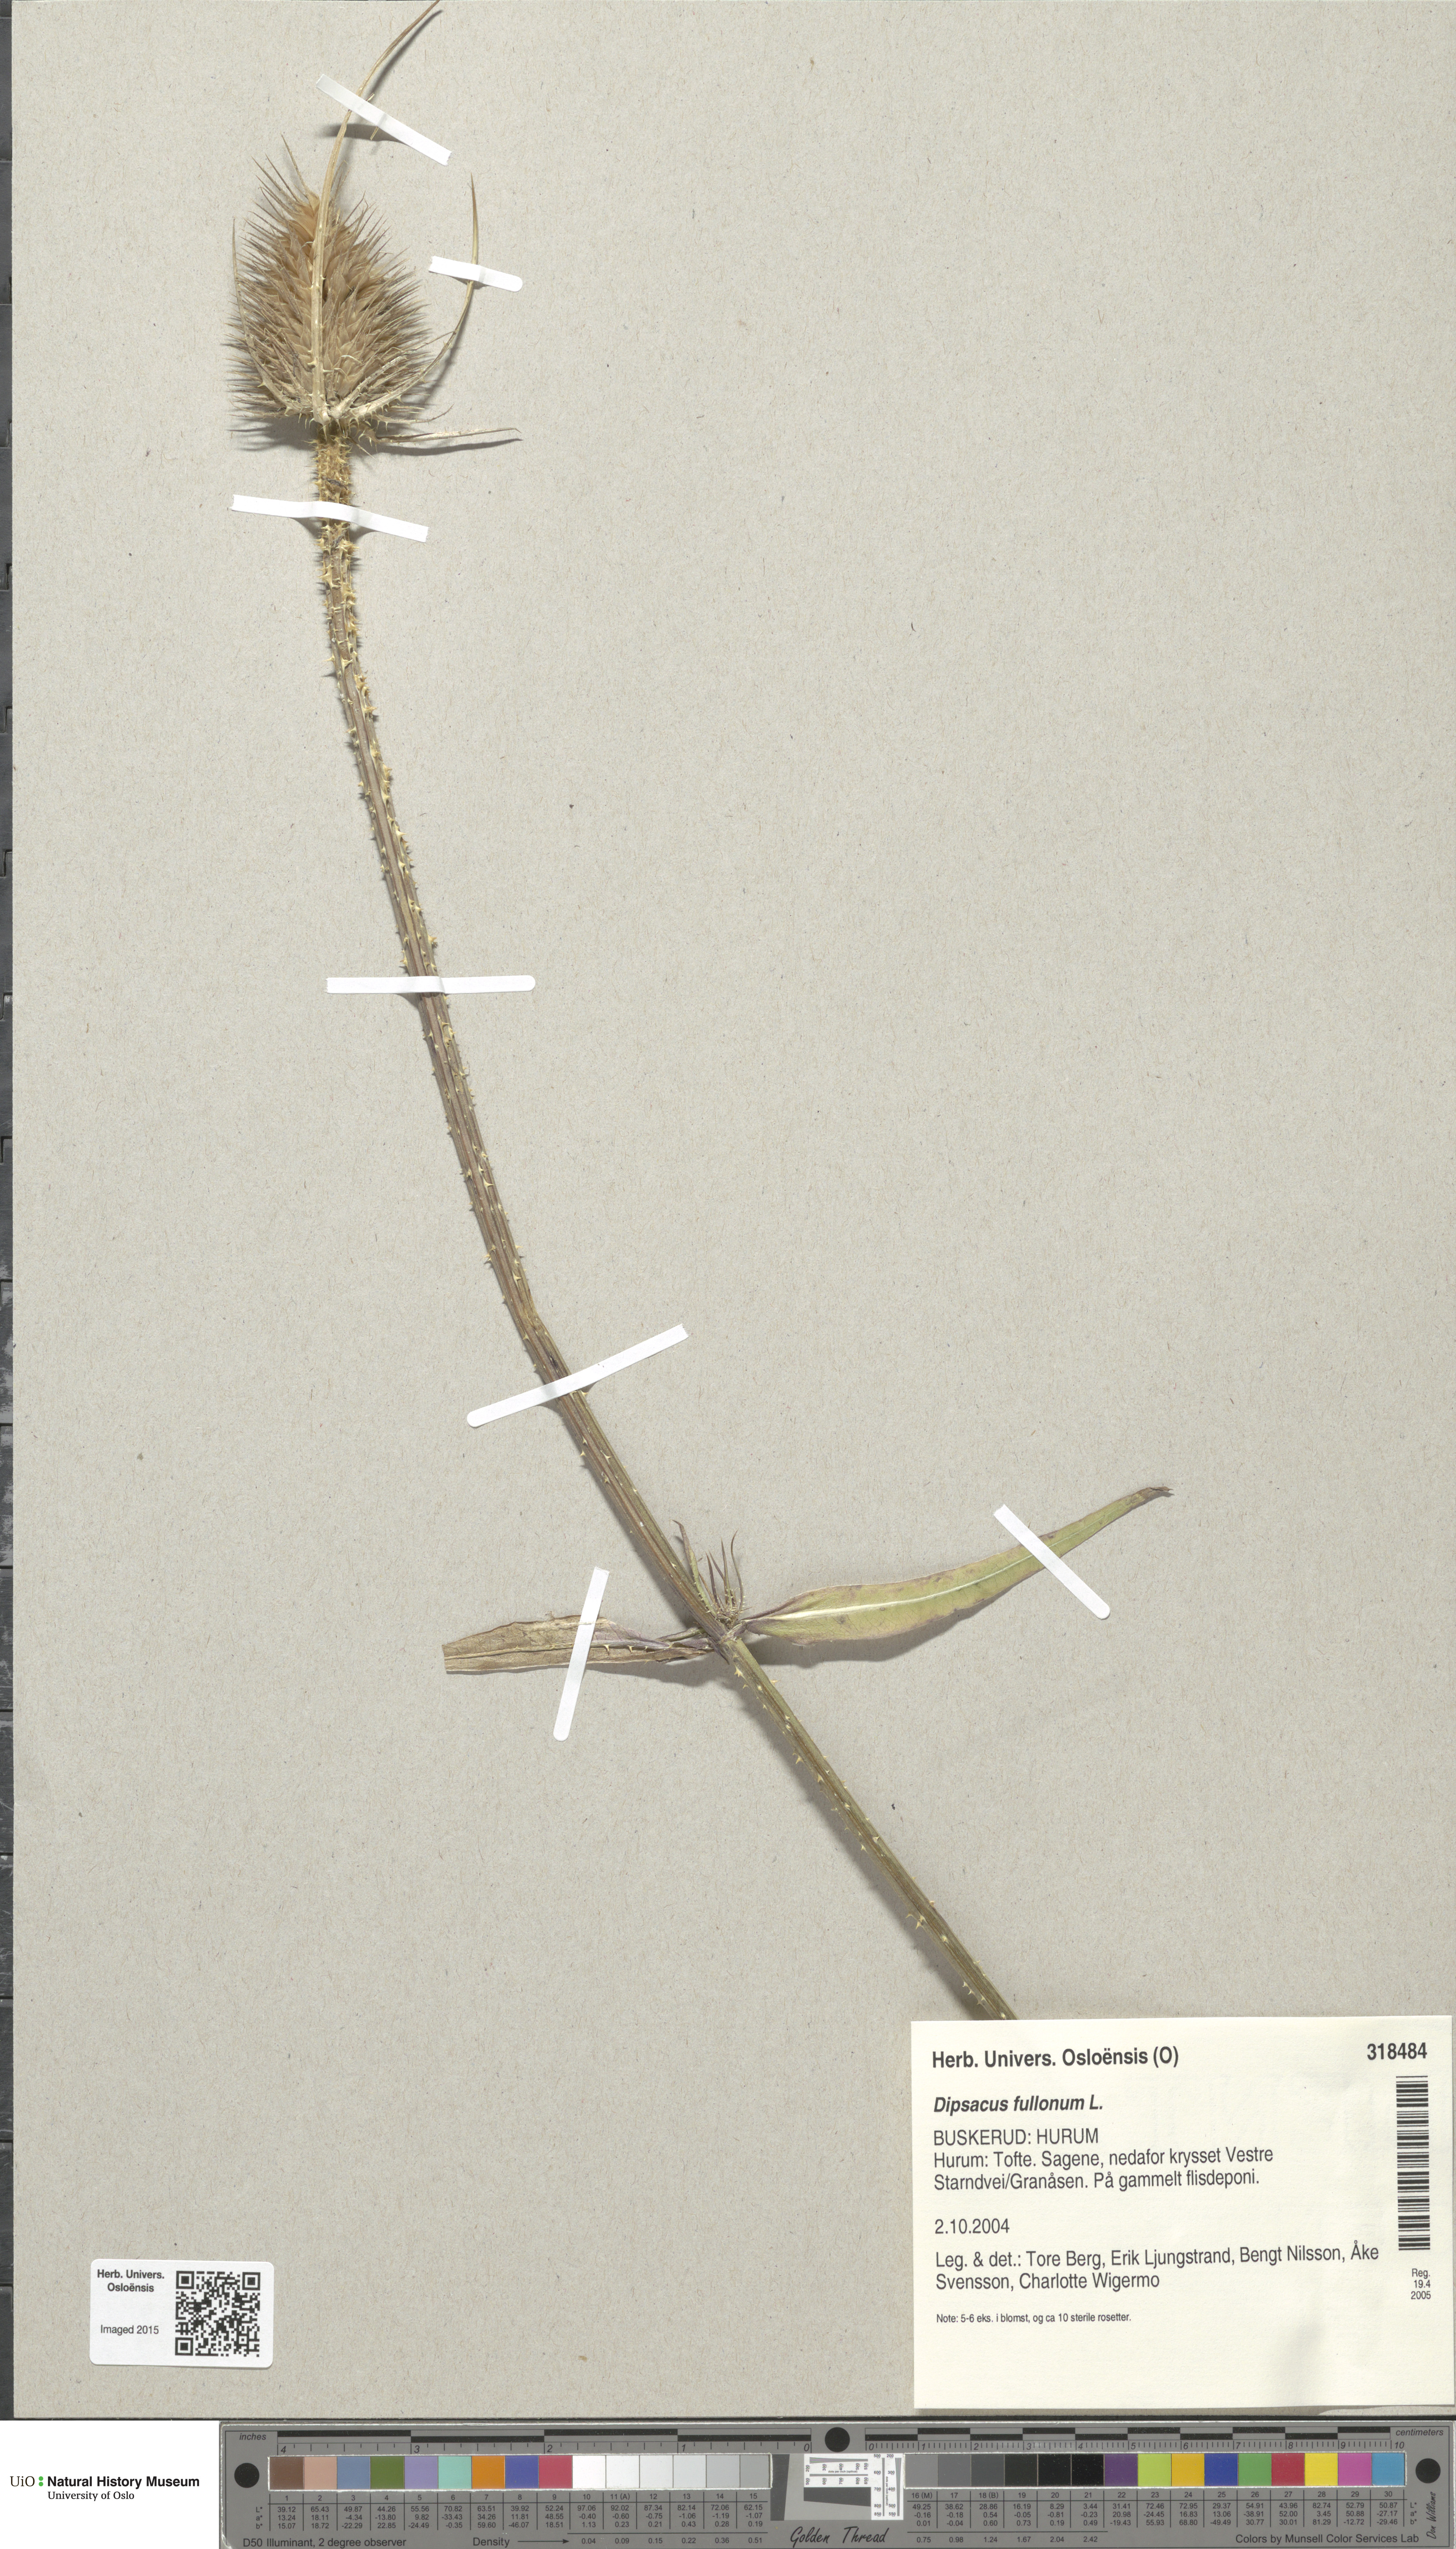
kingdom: Plantae
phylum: Tracheophyta
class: Magnoliopsida
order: Dipsacales
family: Caprifoliaceae
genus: Dipsacus
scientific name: Dipsacus fullonum
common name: Teasel
